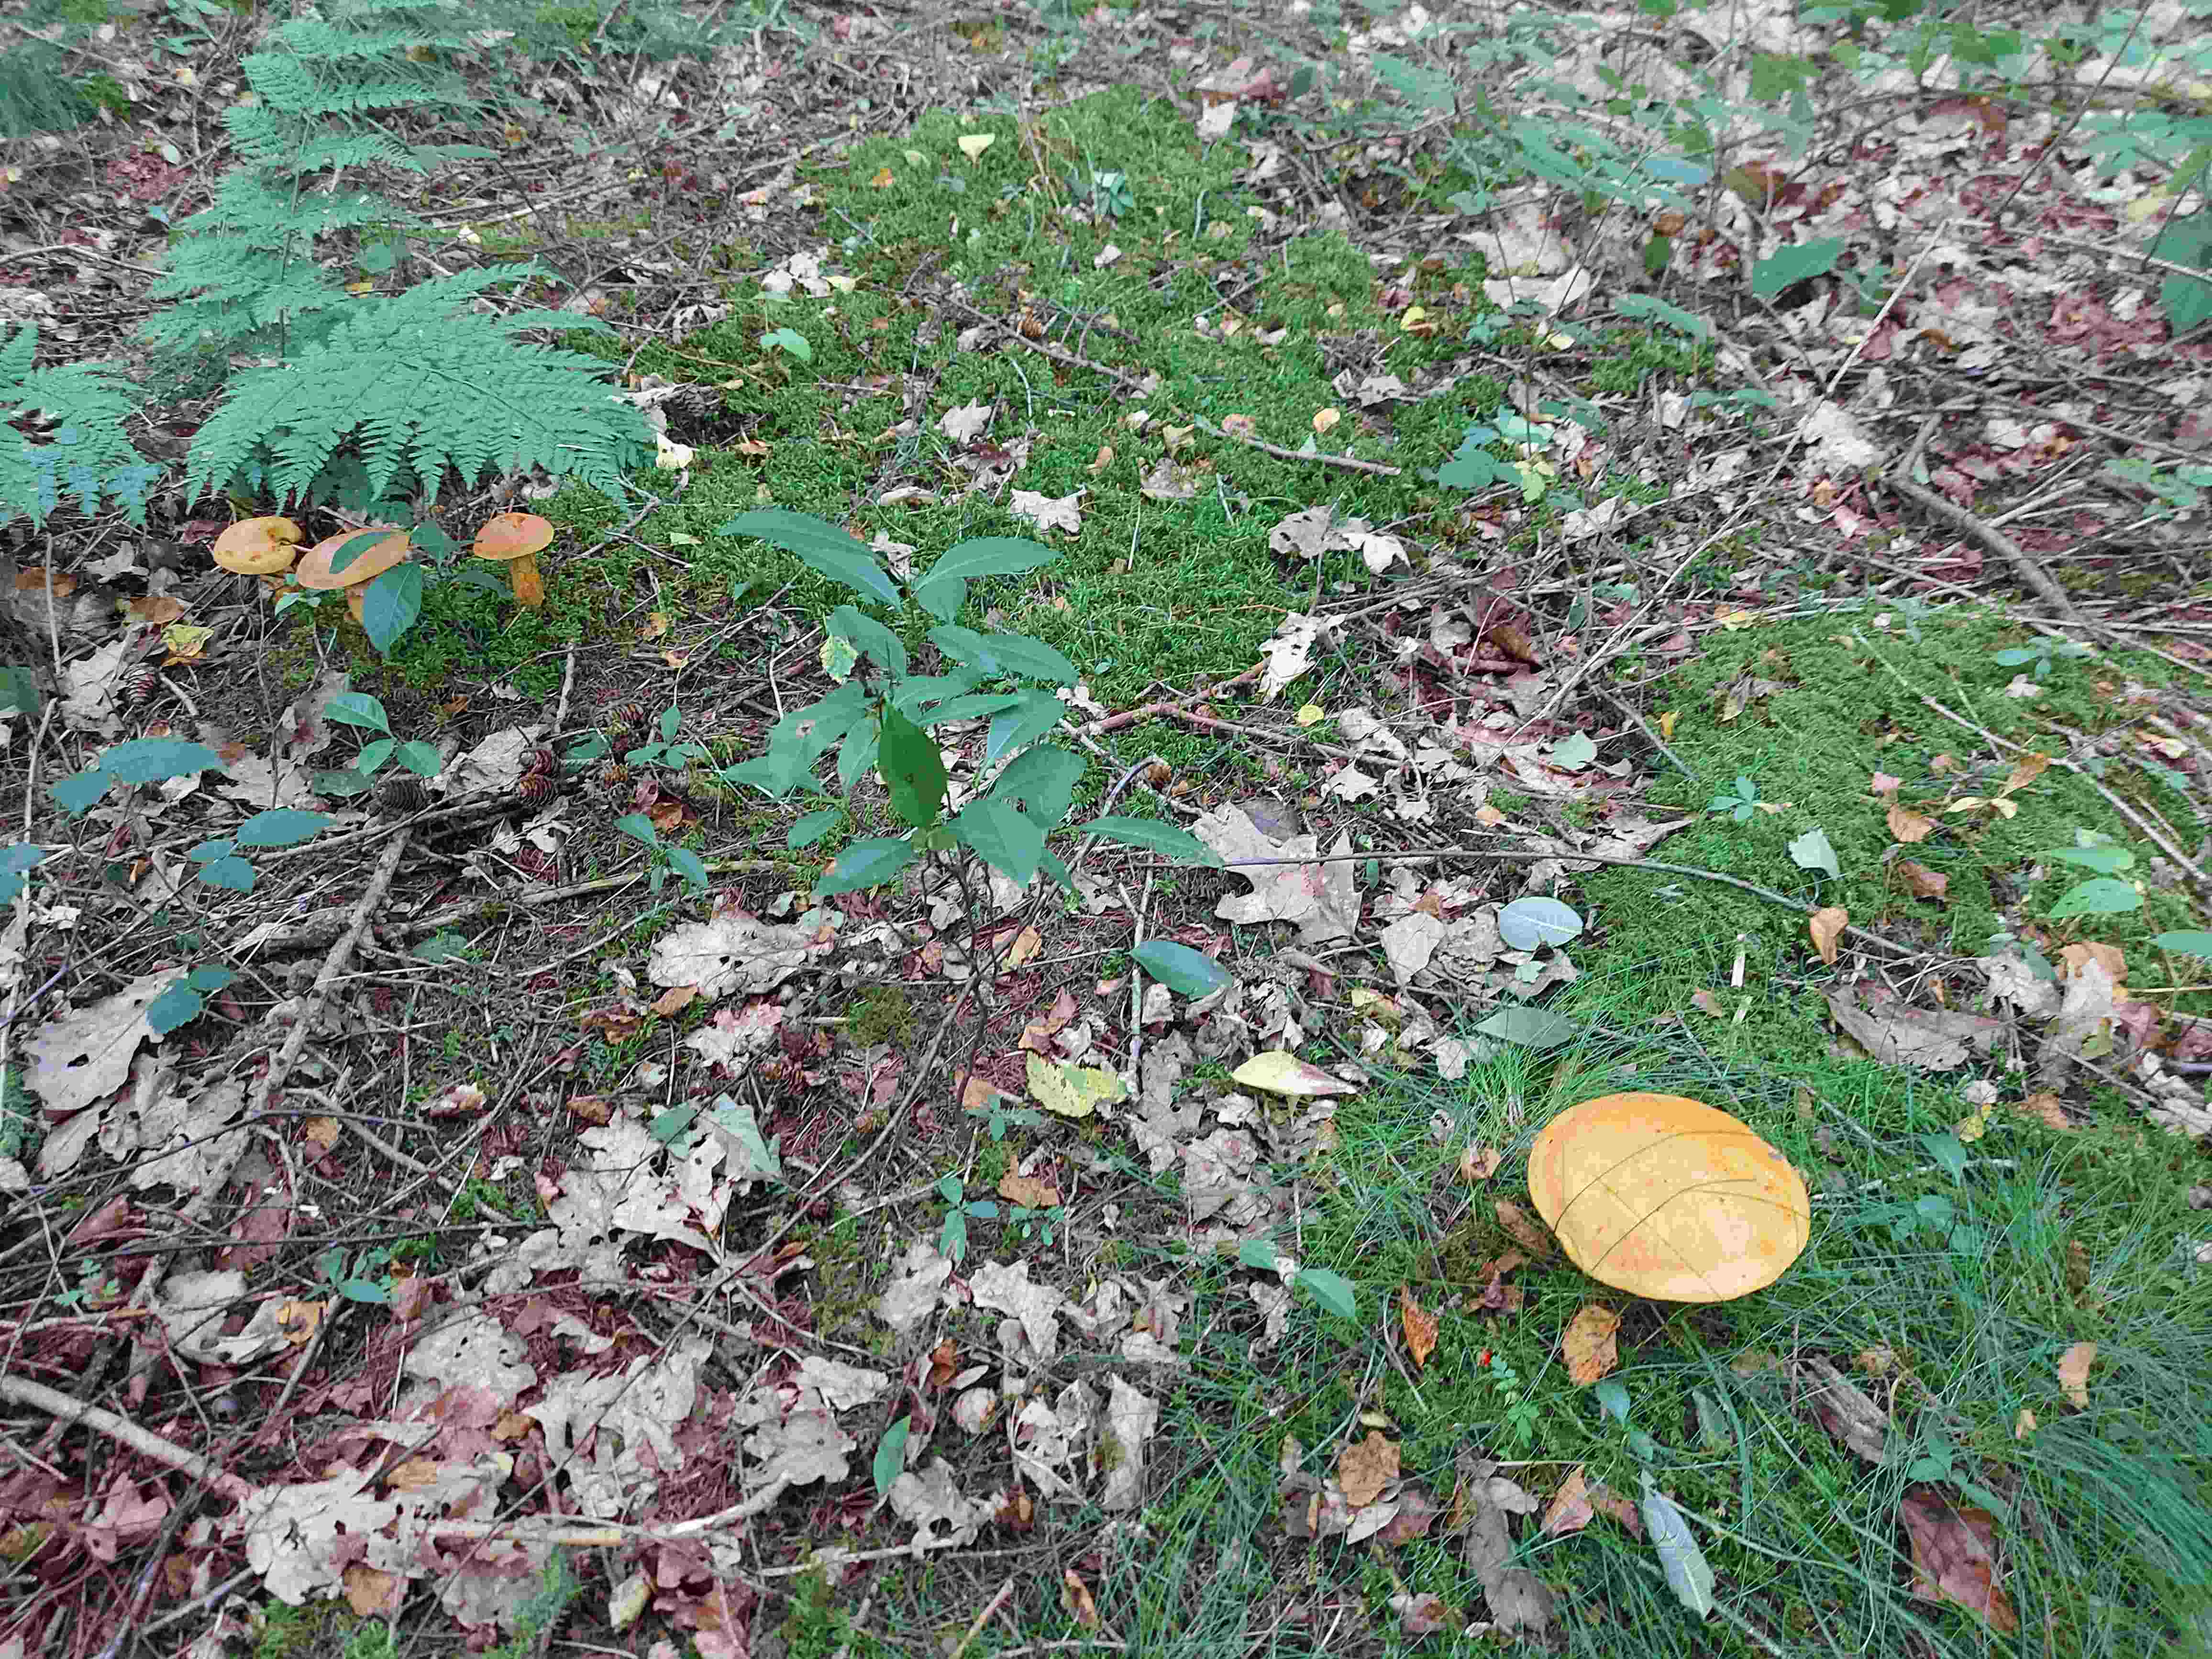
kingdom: Fungi
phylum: Basidiomycota
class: Agaricomycetes
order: Boletales
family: Suillaceae
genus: Suillus
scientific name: Suillus grevillei
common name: lærke-slimrørhat
